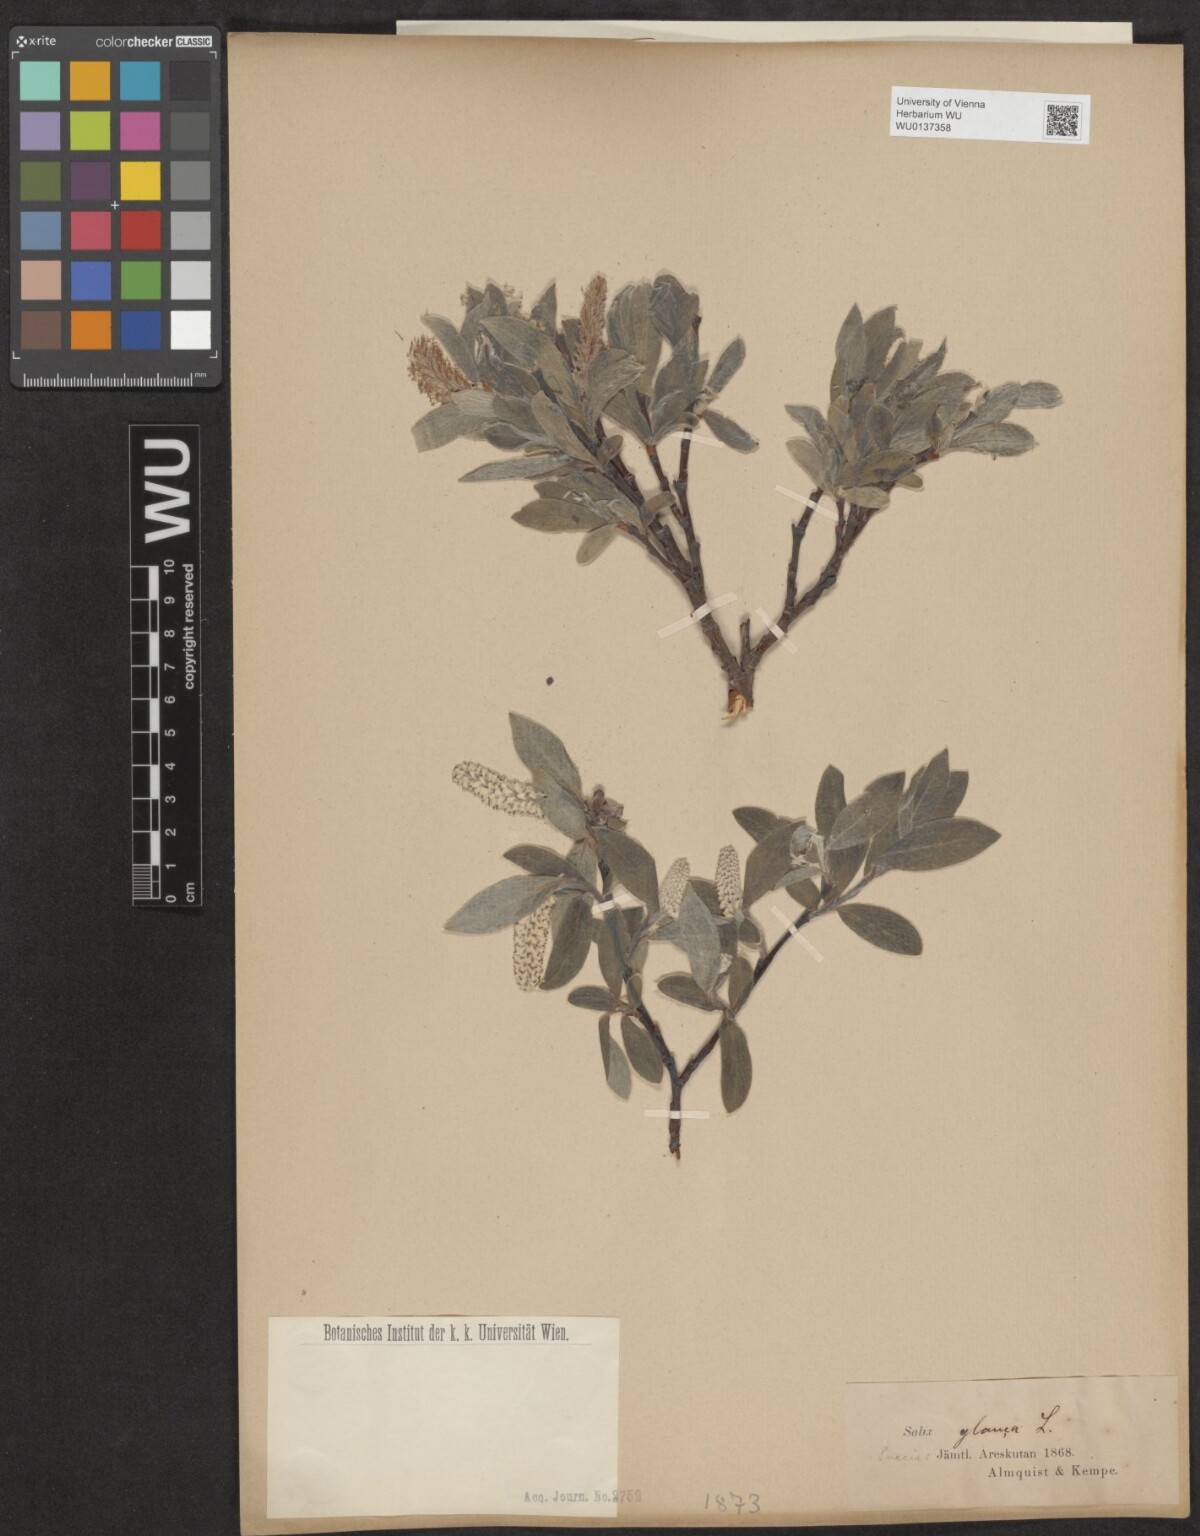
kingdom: Plantae
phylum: Tracheophyta
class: Magnoliopsida
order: Malpighiales
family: Salicaceae
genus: Salix
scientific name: Salix glauca
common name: Glaucous willow
